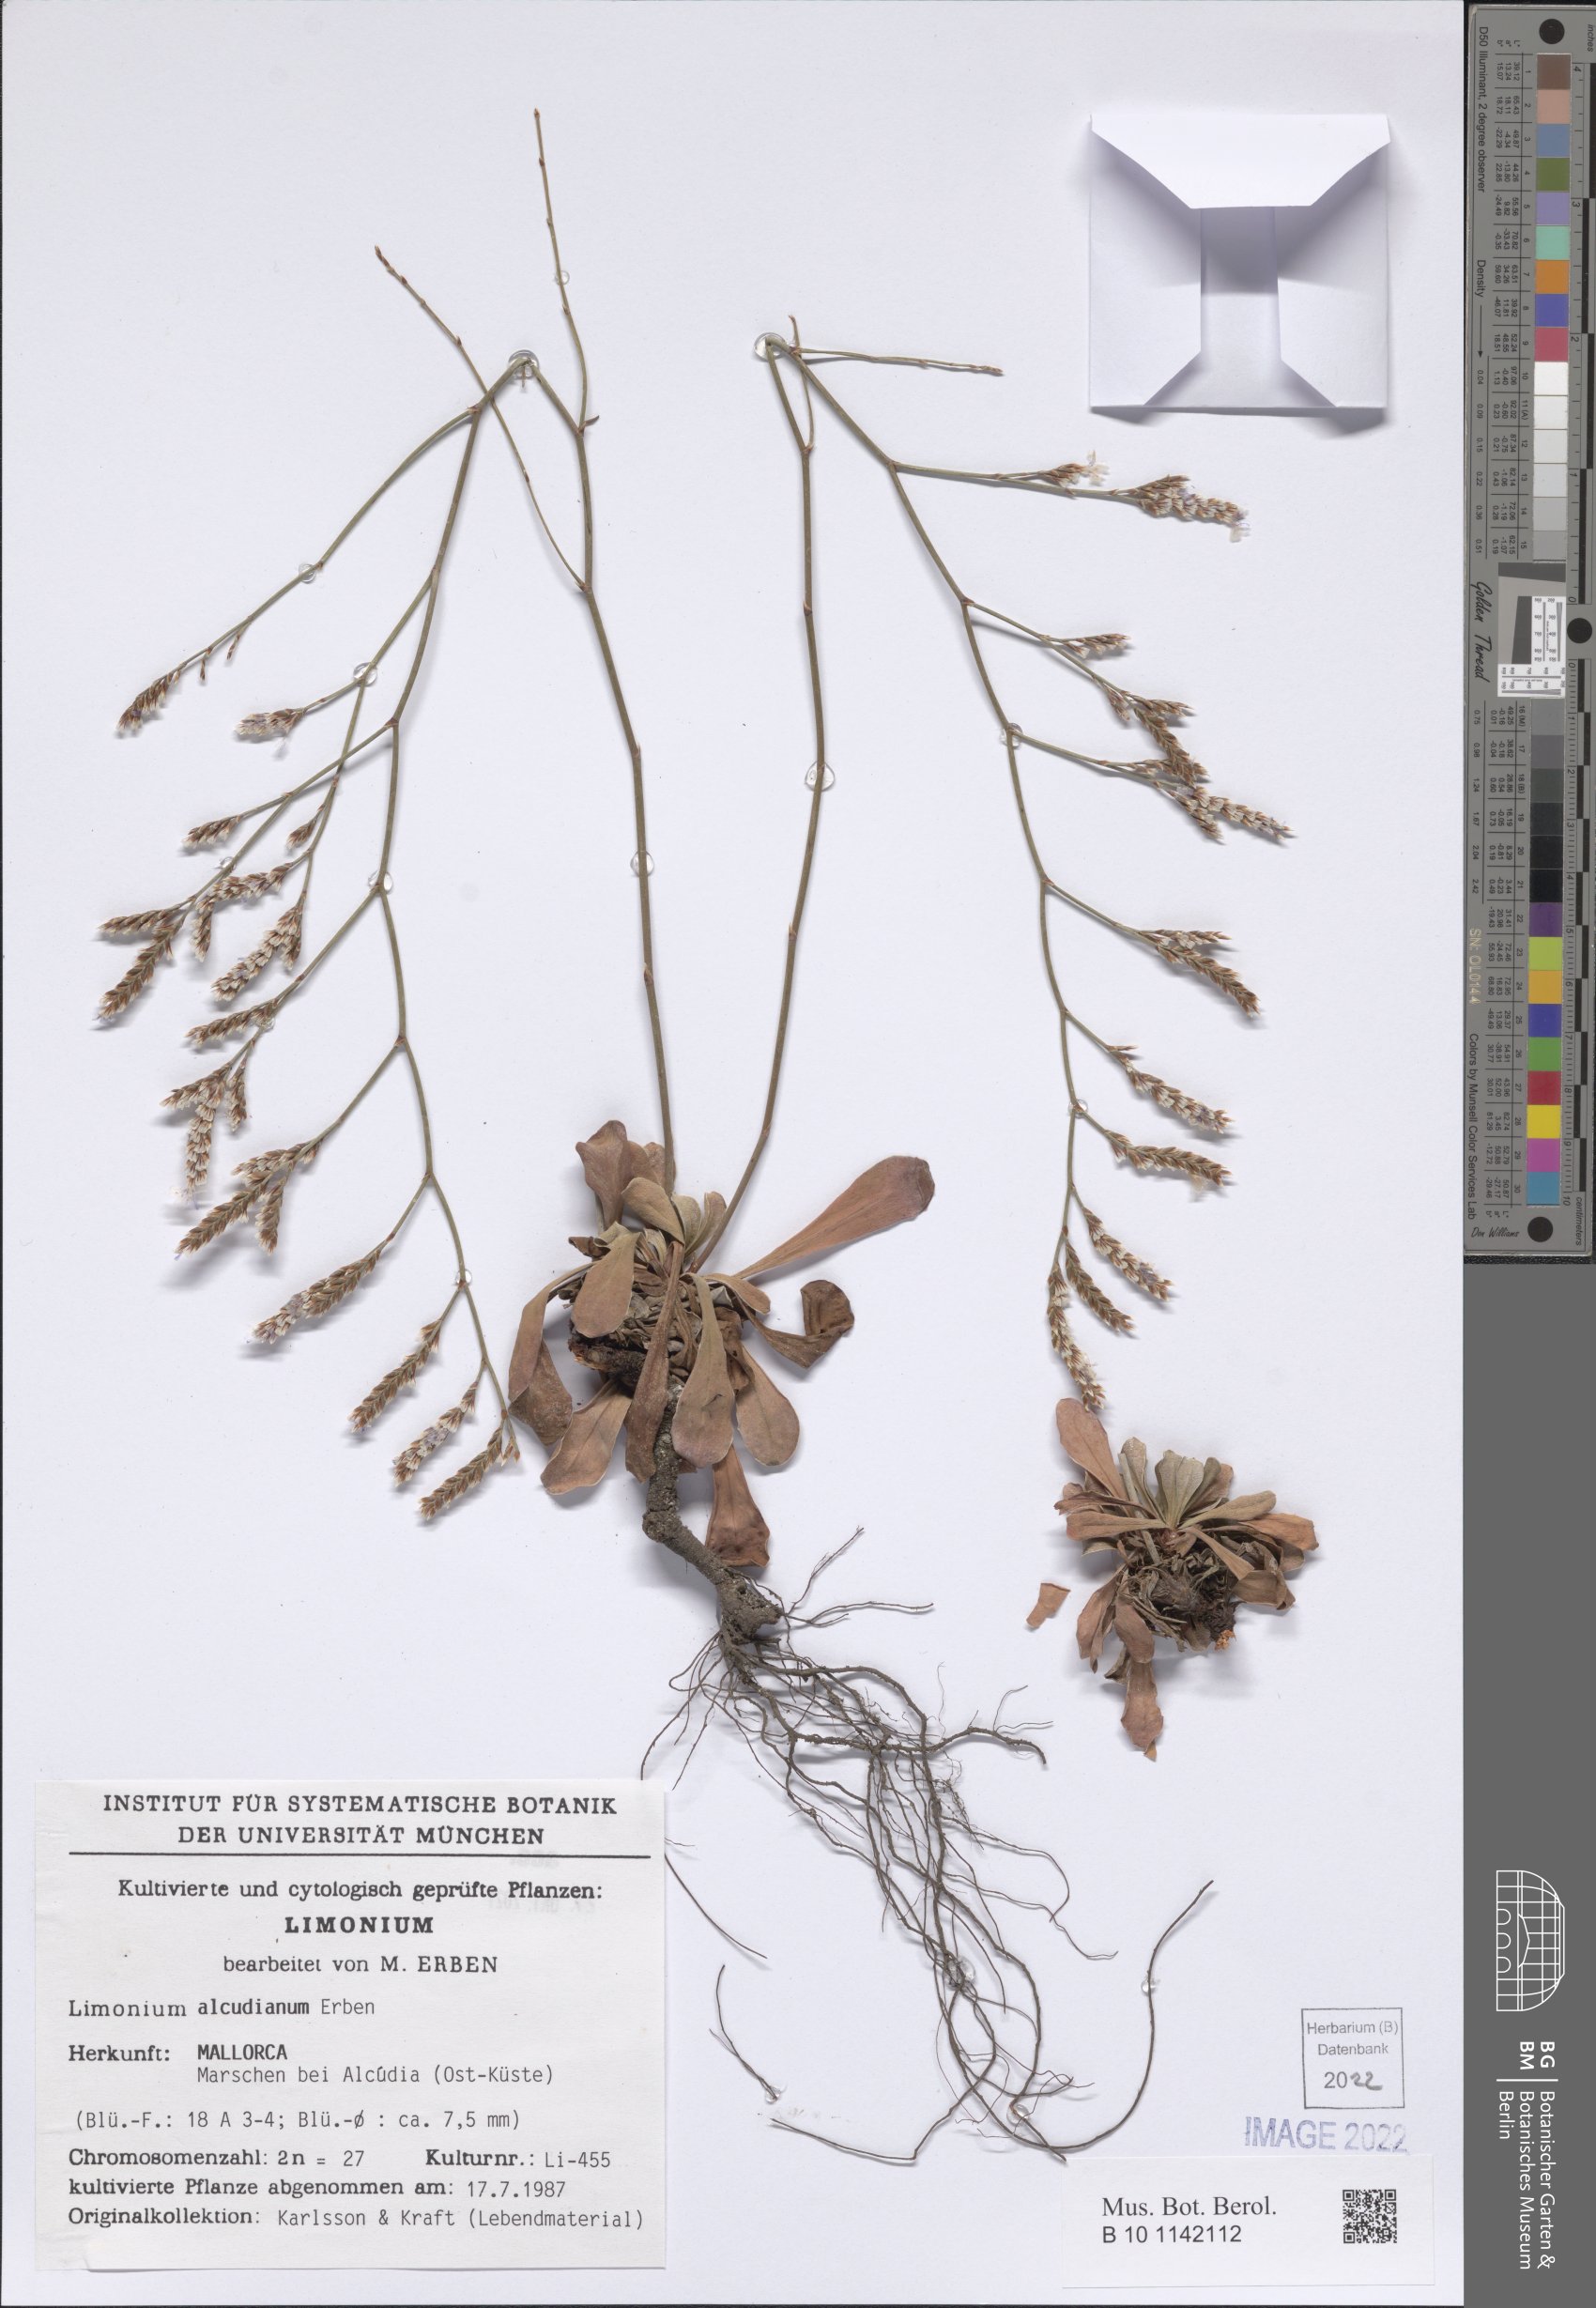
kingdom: Plantae
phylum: Tracheophyta
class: Magnoliopsida
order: Caryophyllales
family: Plumbaginaceae
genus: Limonium
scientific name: Limonium alcudianum
